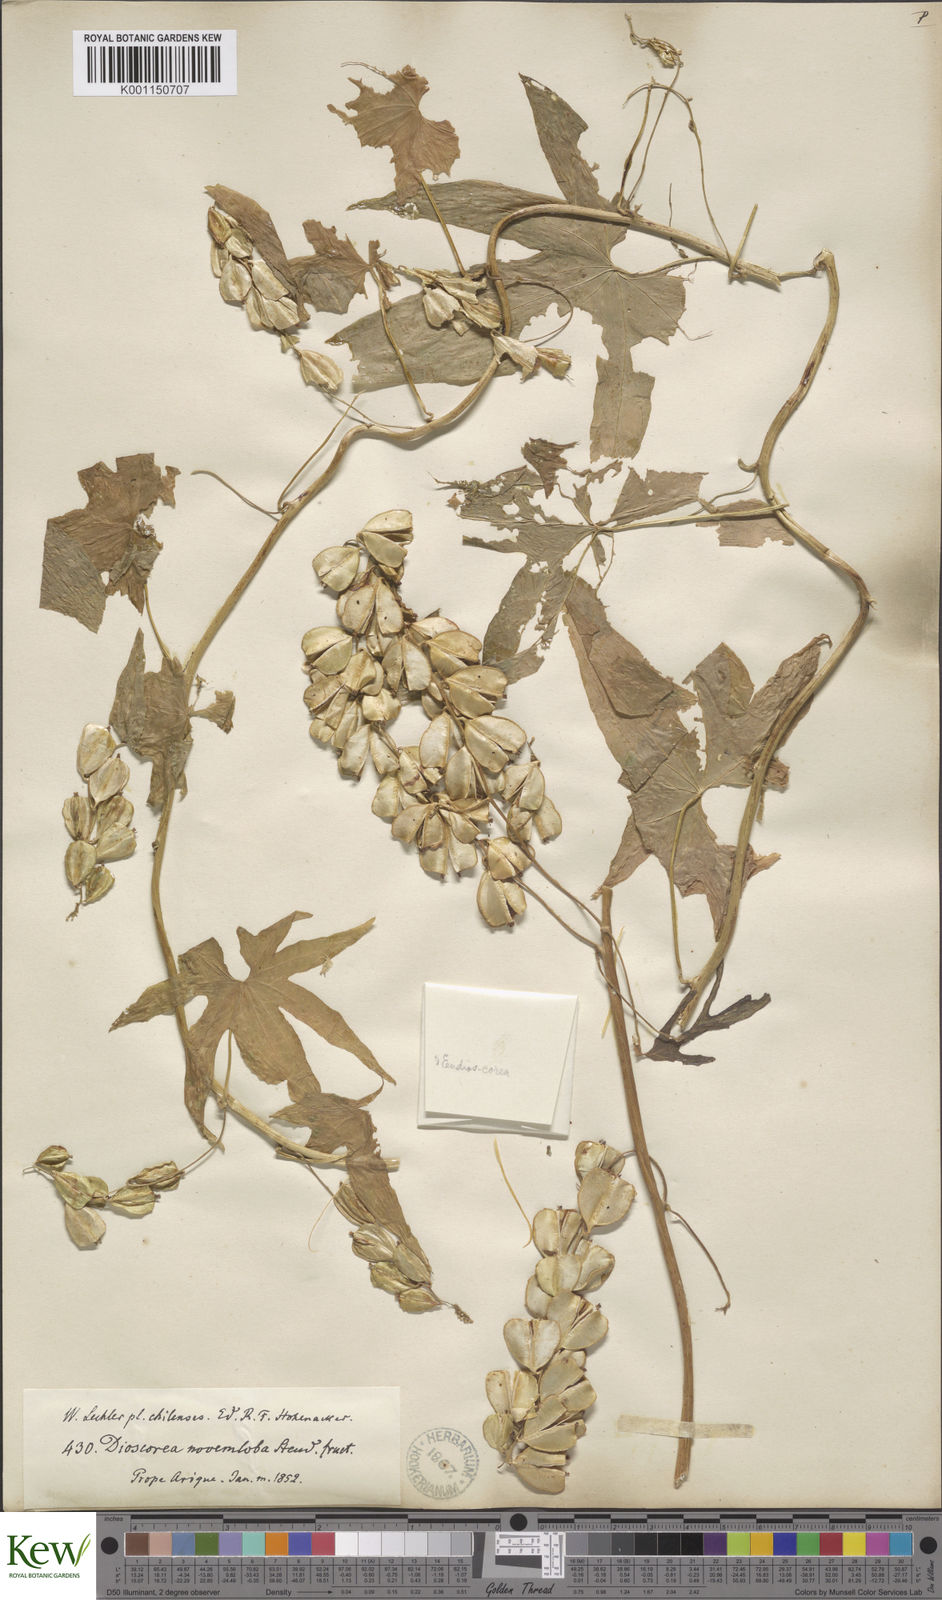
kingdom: Plantae
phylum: Tracheophyta
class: Liliopsida
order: Dioscoreales
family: Dioscoreaceae
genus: Dioscorea
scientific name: Dioscorea brachybotrya
